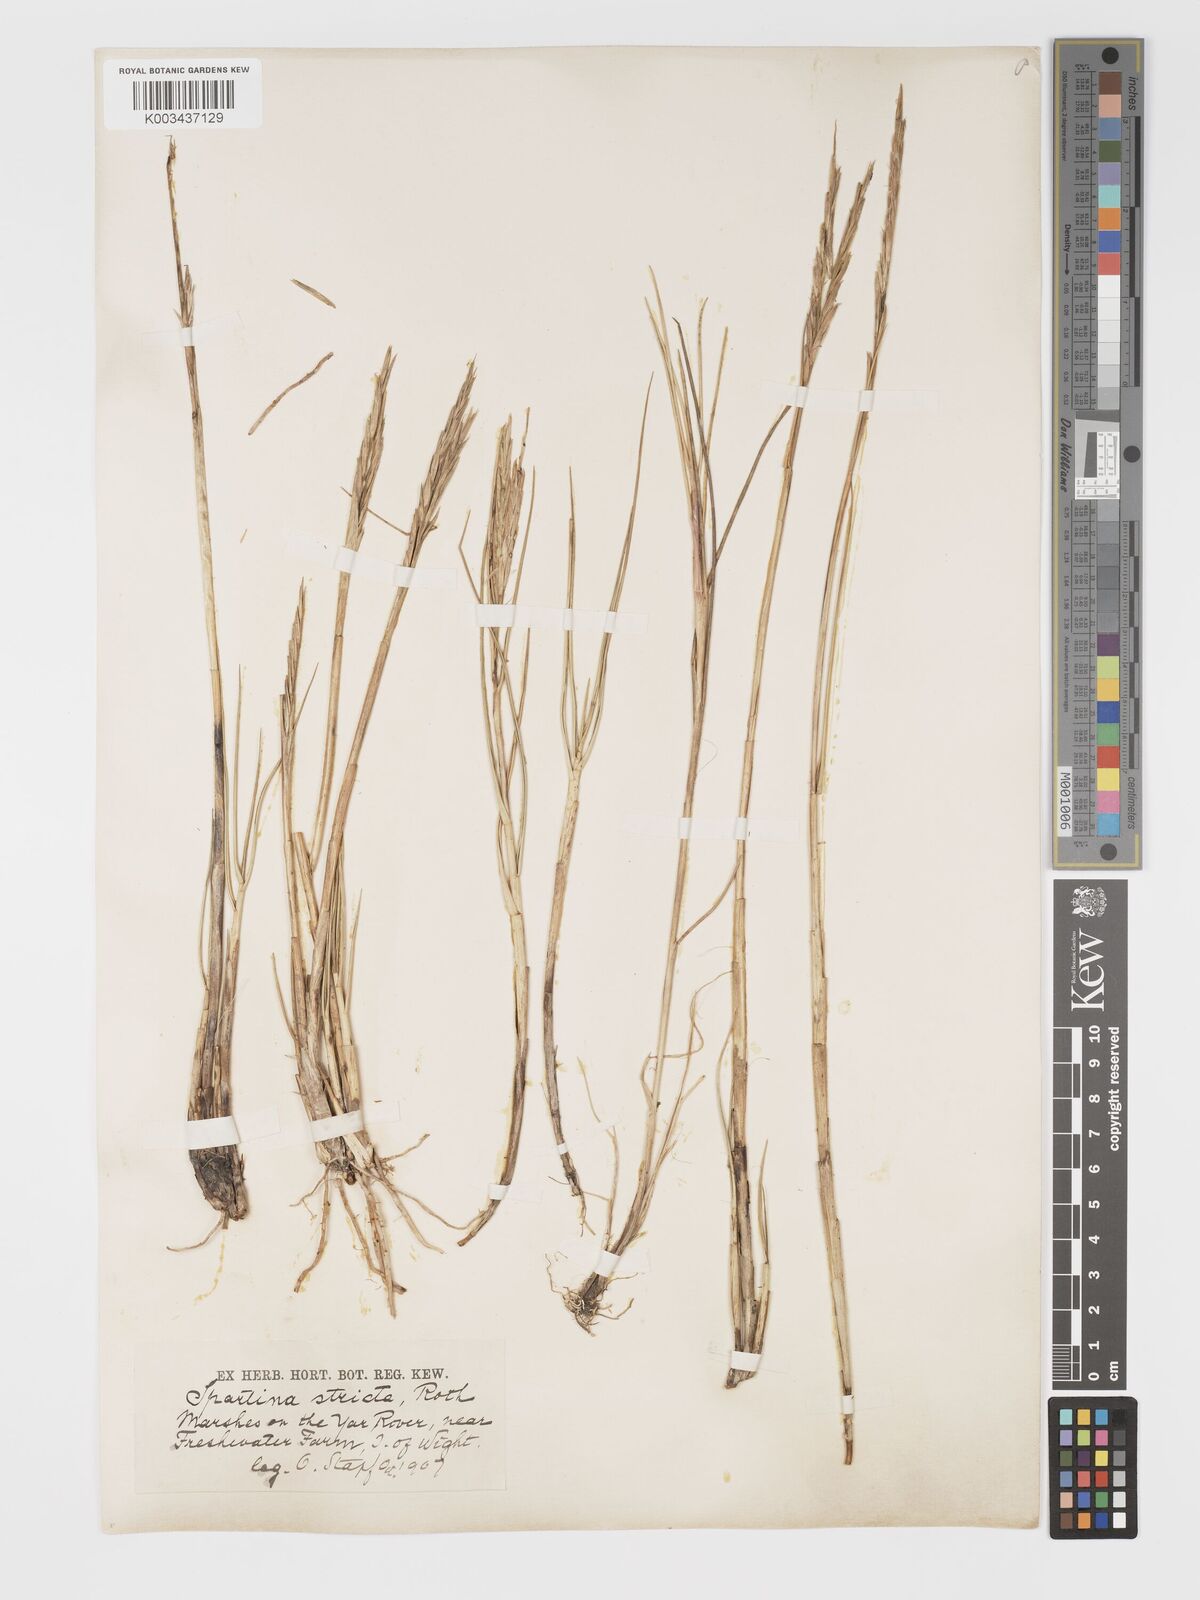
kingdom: Plantae
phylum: Tracheophyta
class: Liliopsida
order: Poales
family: Poaceae
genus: Sporobolus
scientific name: Sporobolus maritimus
